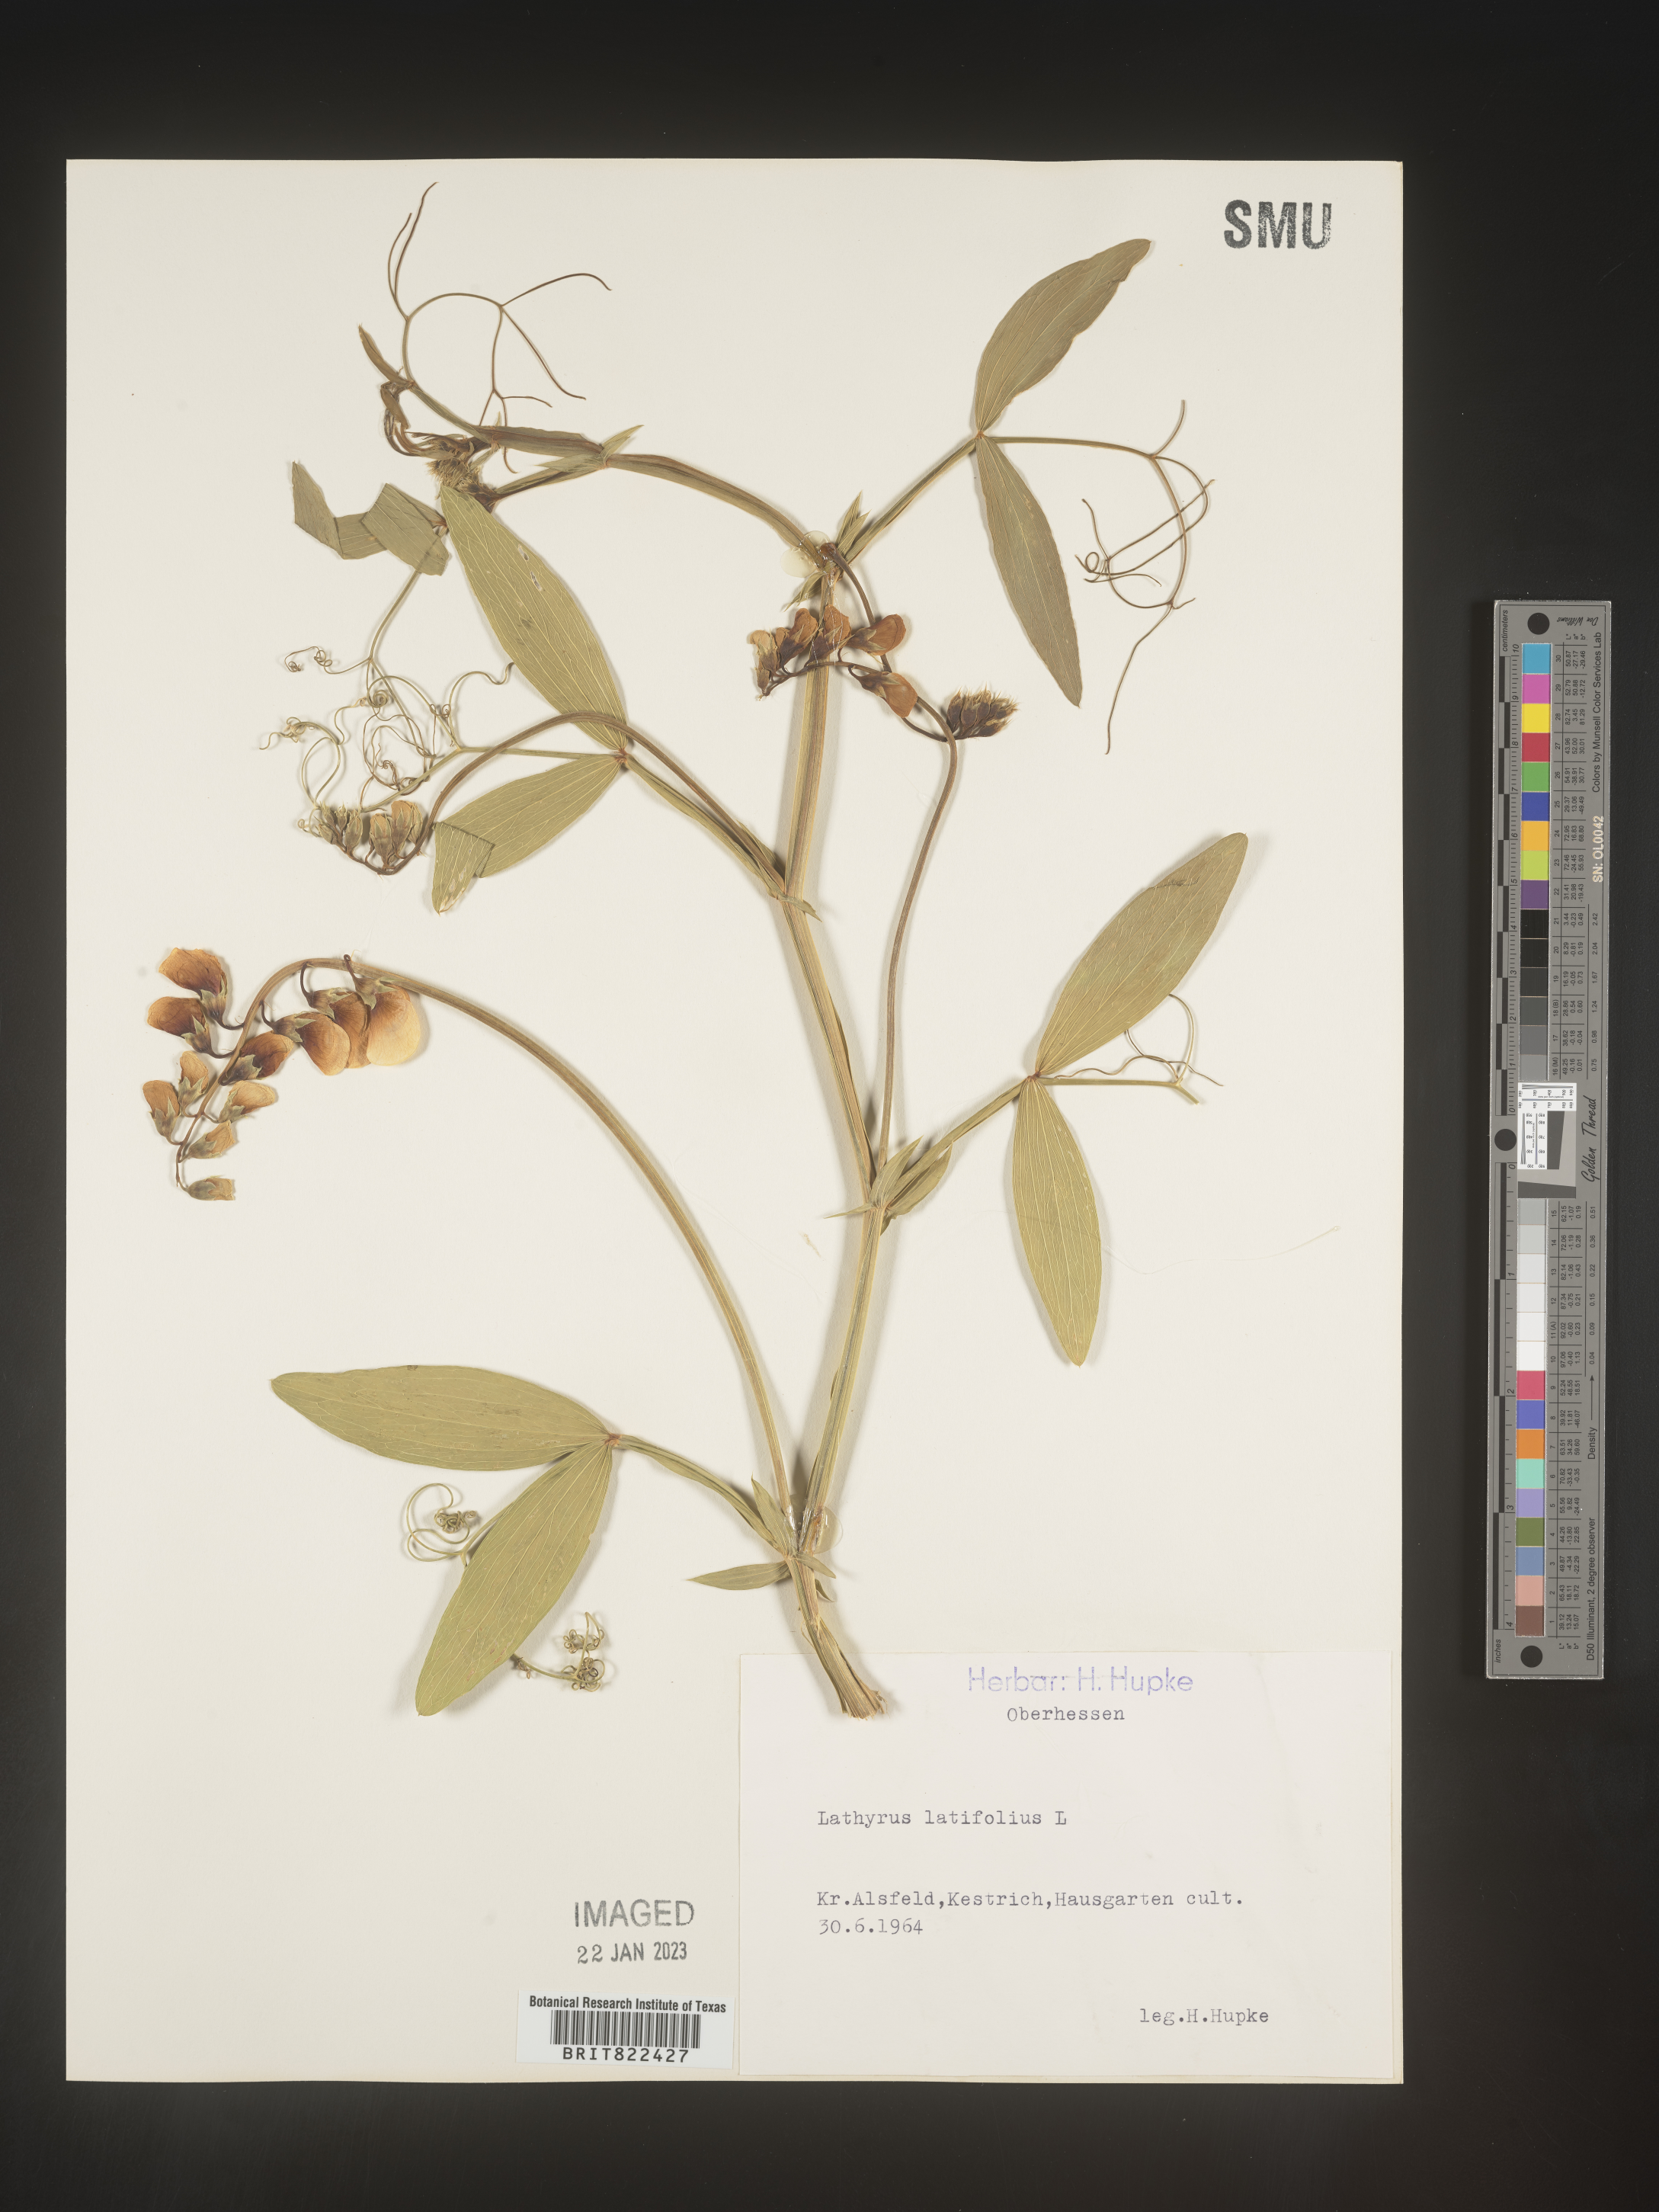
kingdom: Plantae
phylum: Tracheophyta
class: Magnoliopsida
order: Fabales
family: Fabaceae
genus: Lathyrus
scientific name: Lathyrus
